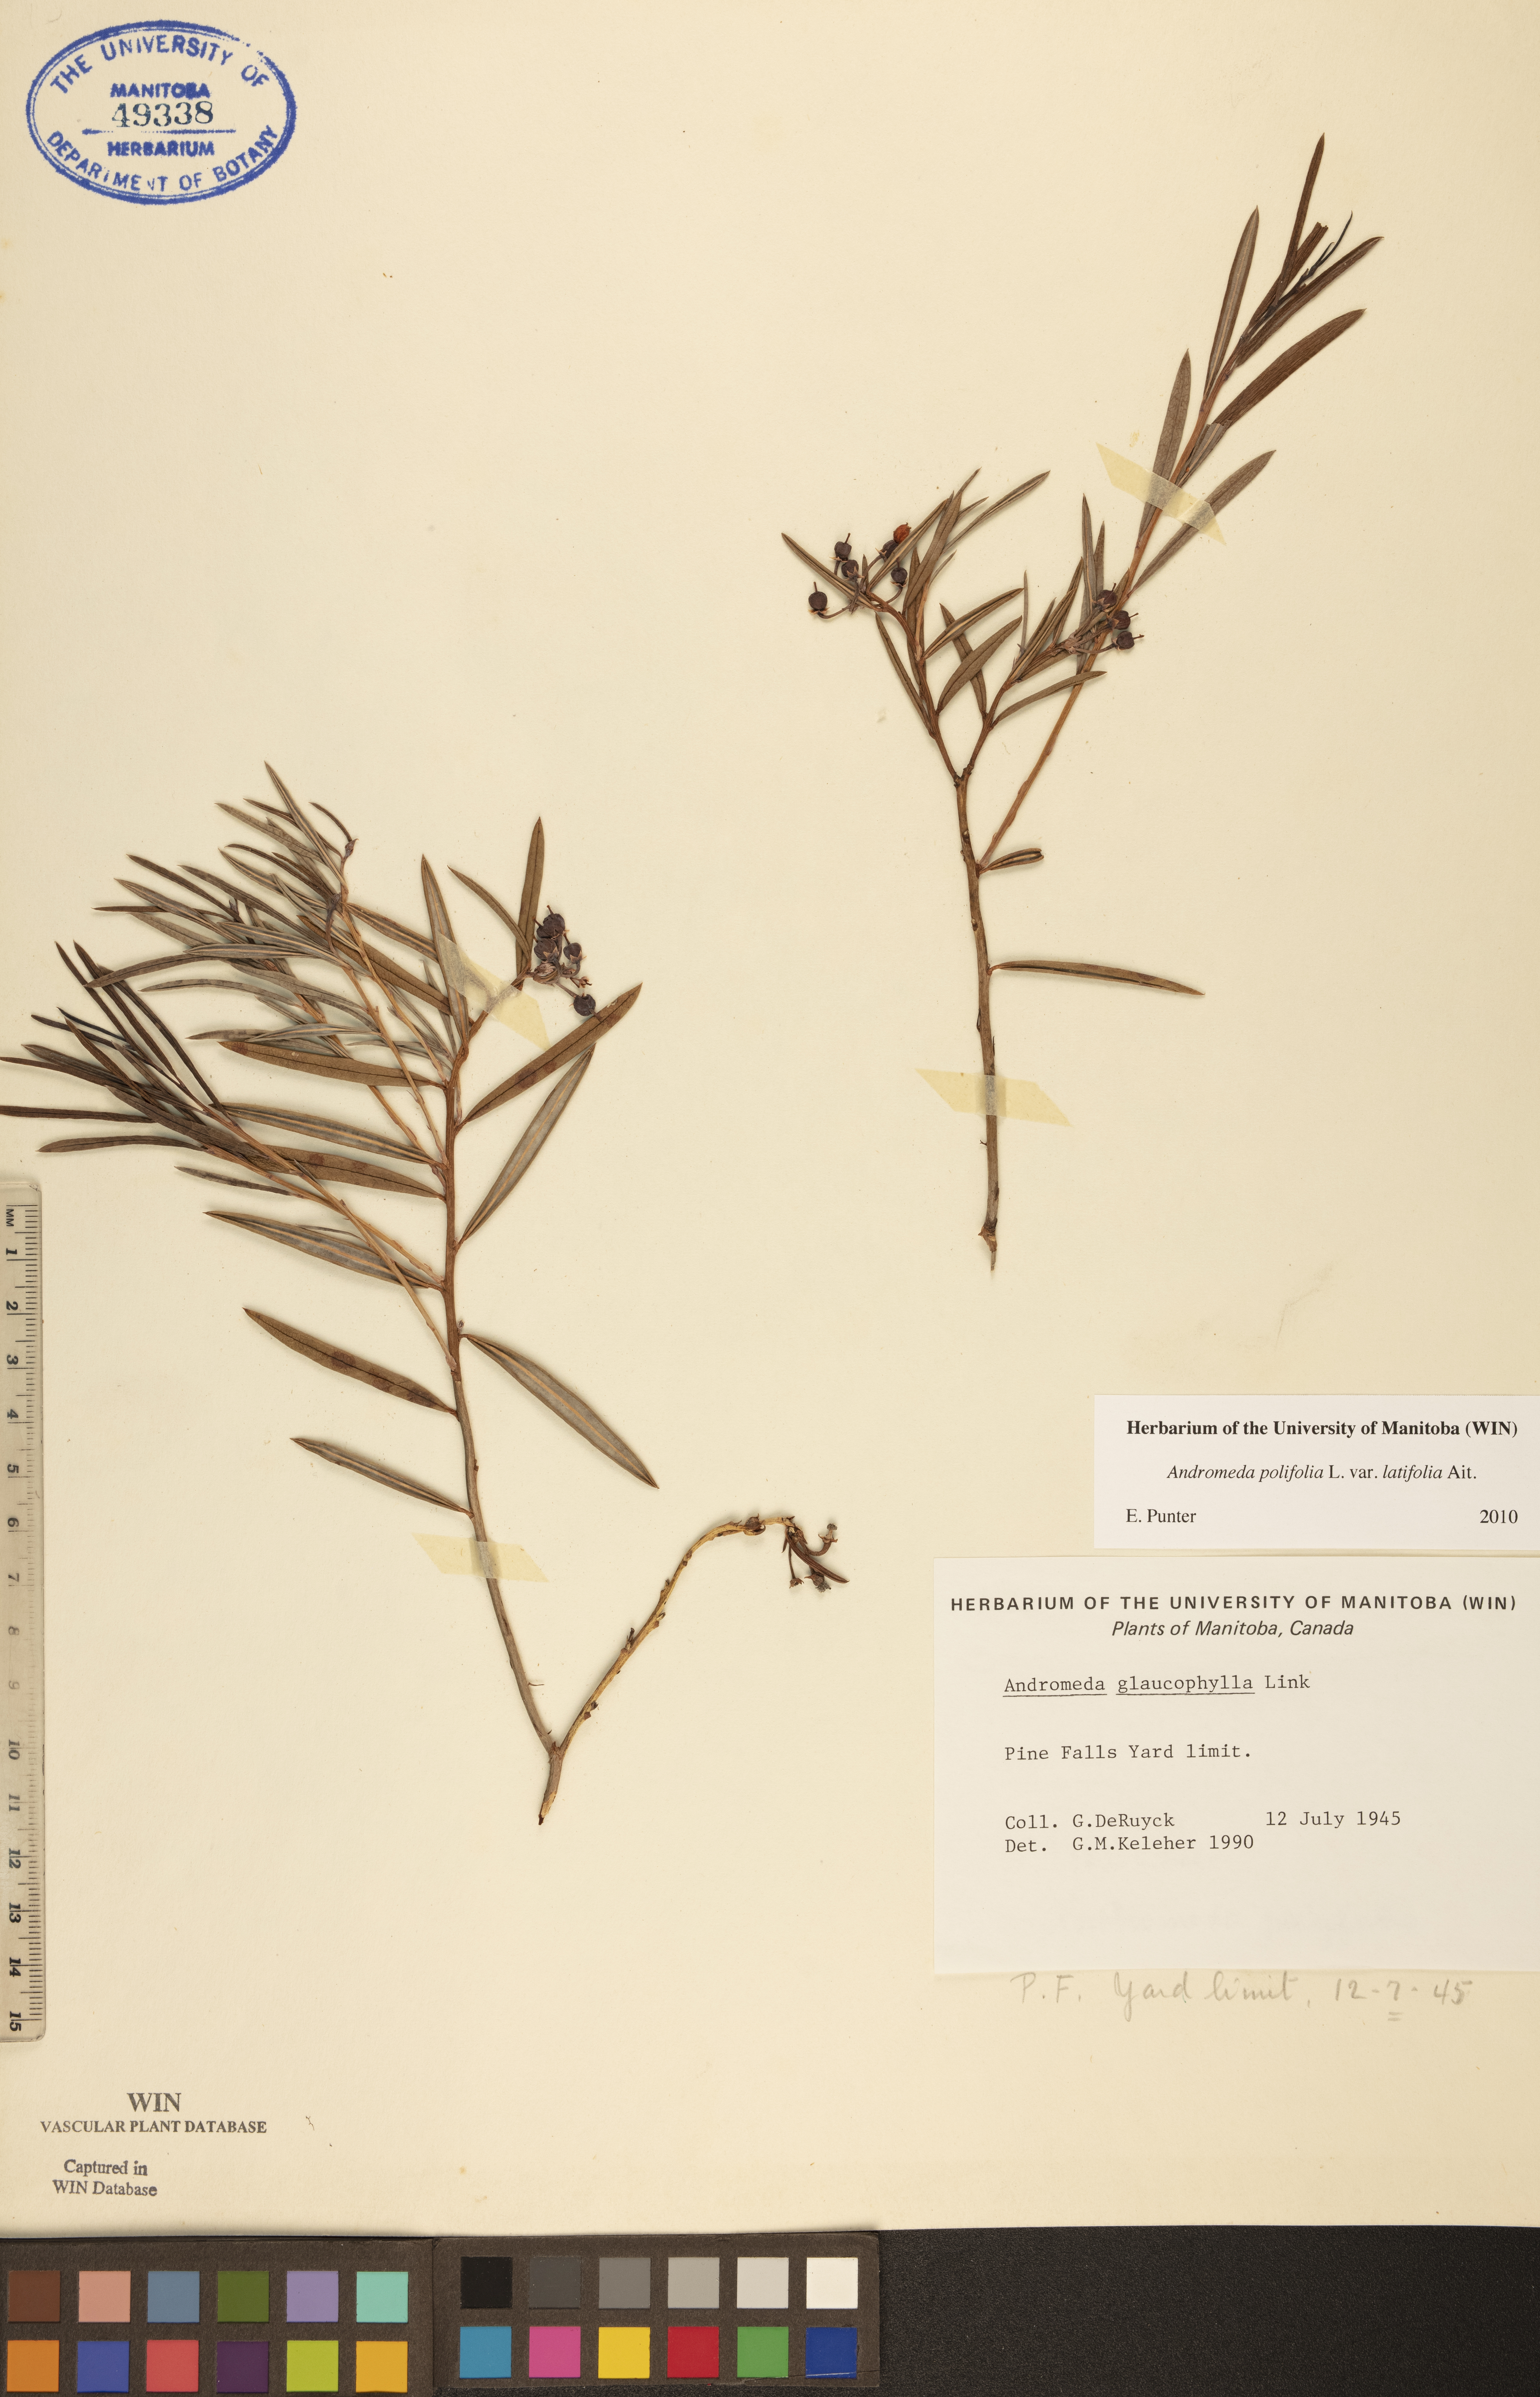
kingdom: Plantae
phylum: Tracheophyta
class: Magnoliopsida
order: Ericales
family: Ericaceae
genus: Andromeda
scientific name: Andromeda polifolia
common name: Bog-rosemary
